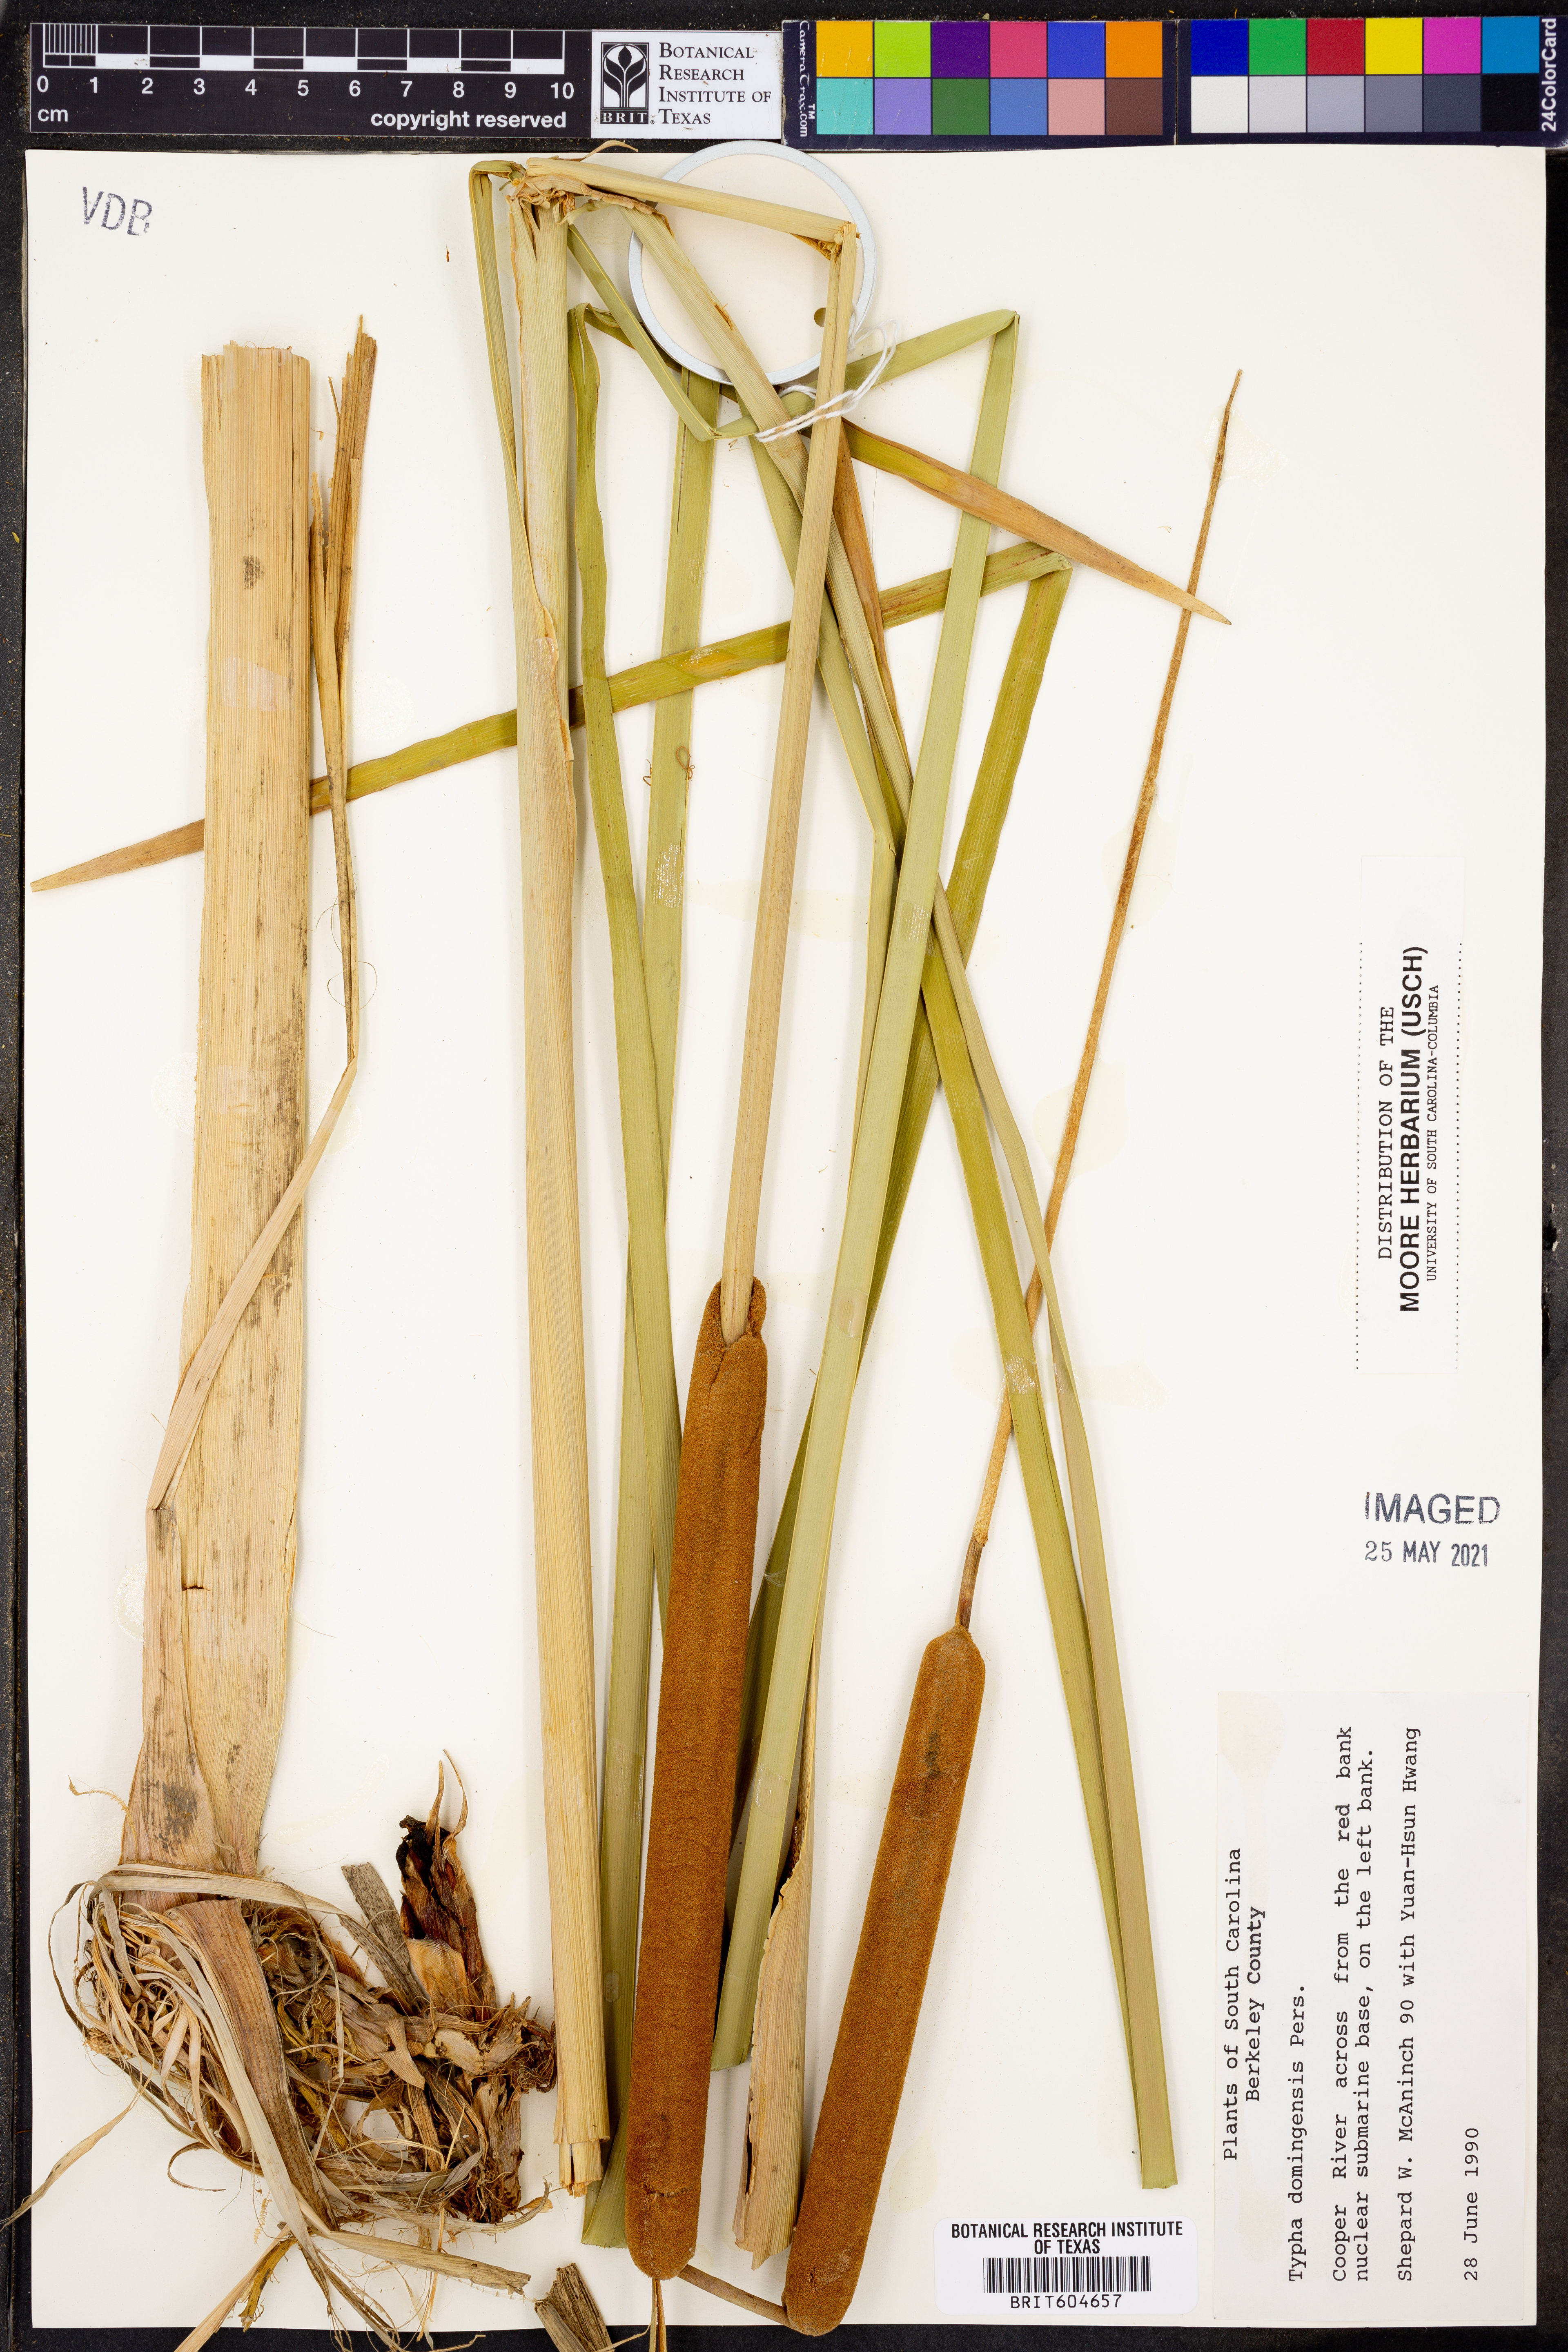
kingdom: Plantae
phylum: Tracheophyta
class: Liliopsida
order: Poales
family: Typhaceae
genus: Typha
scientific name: Typha domingensis
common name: Southern cattail
